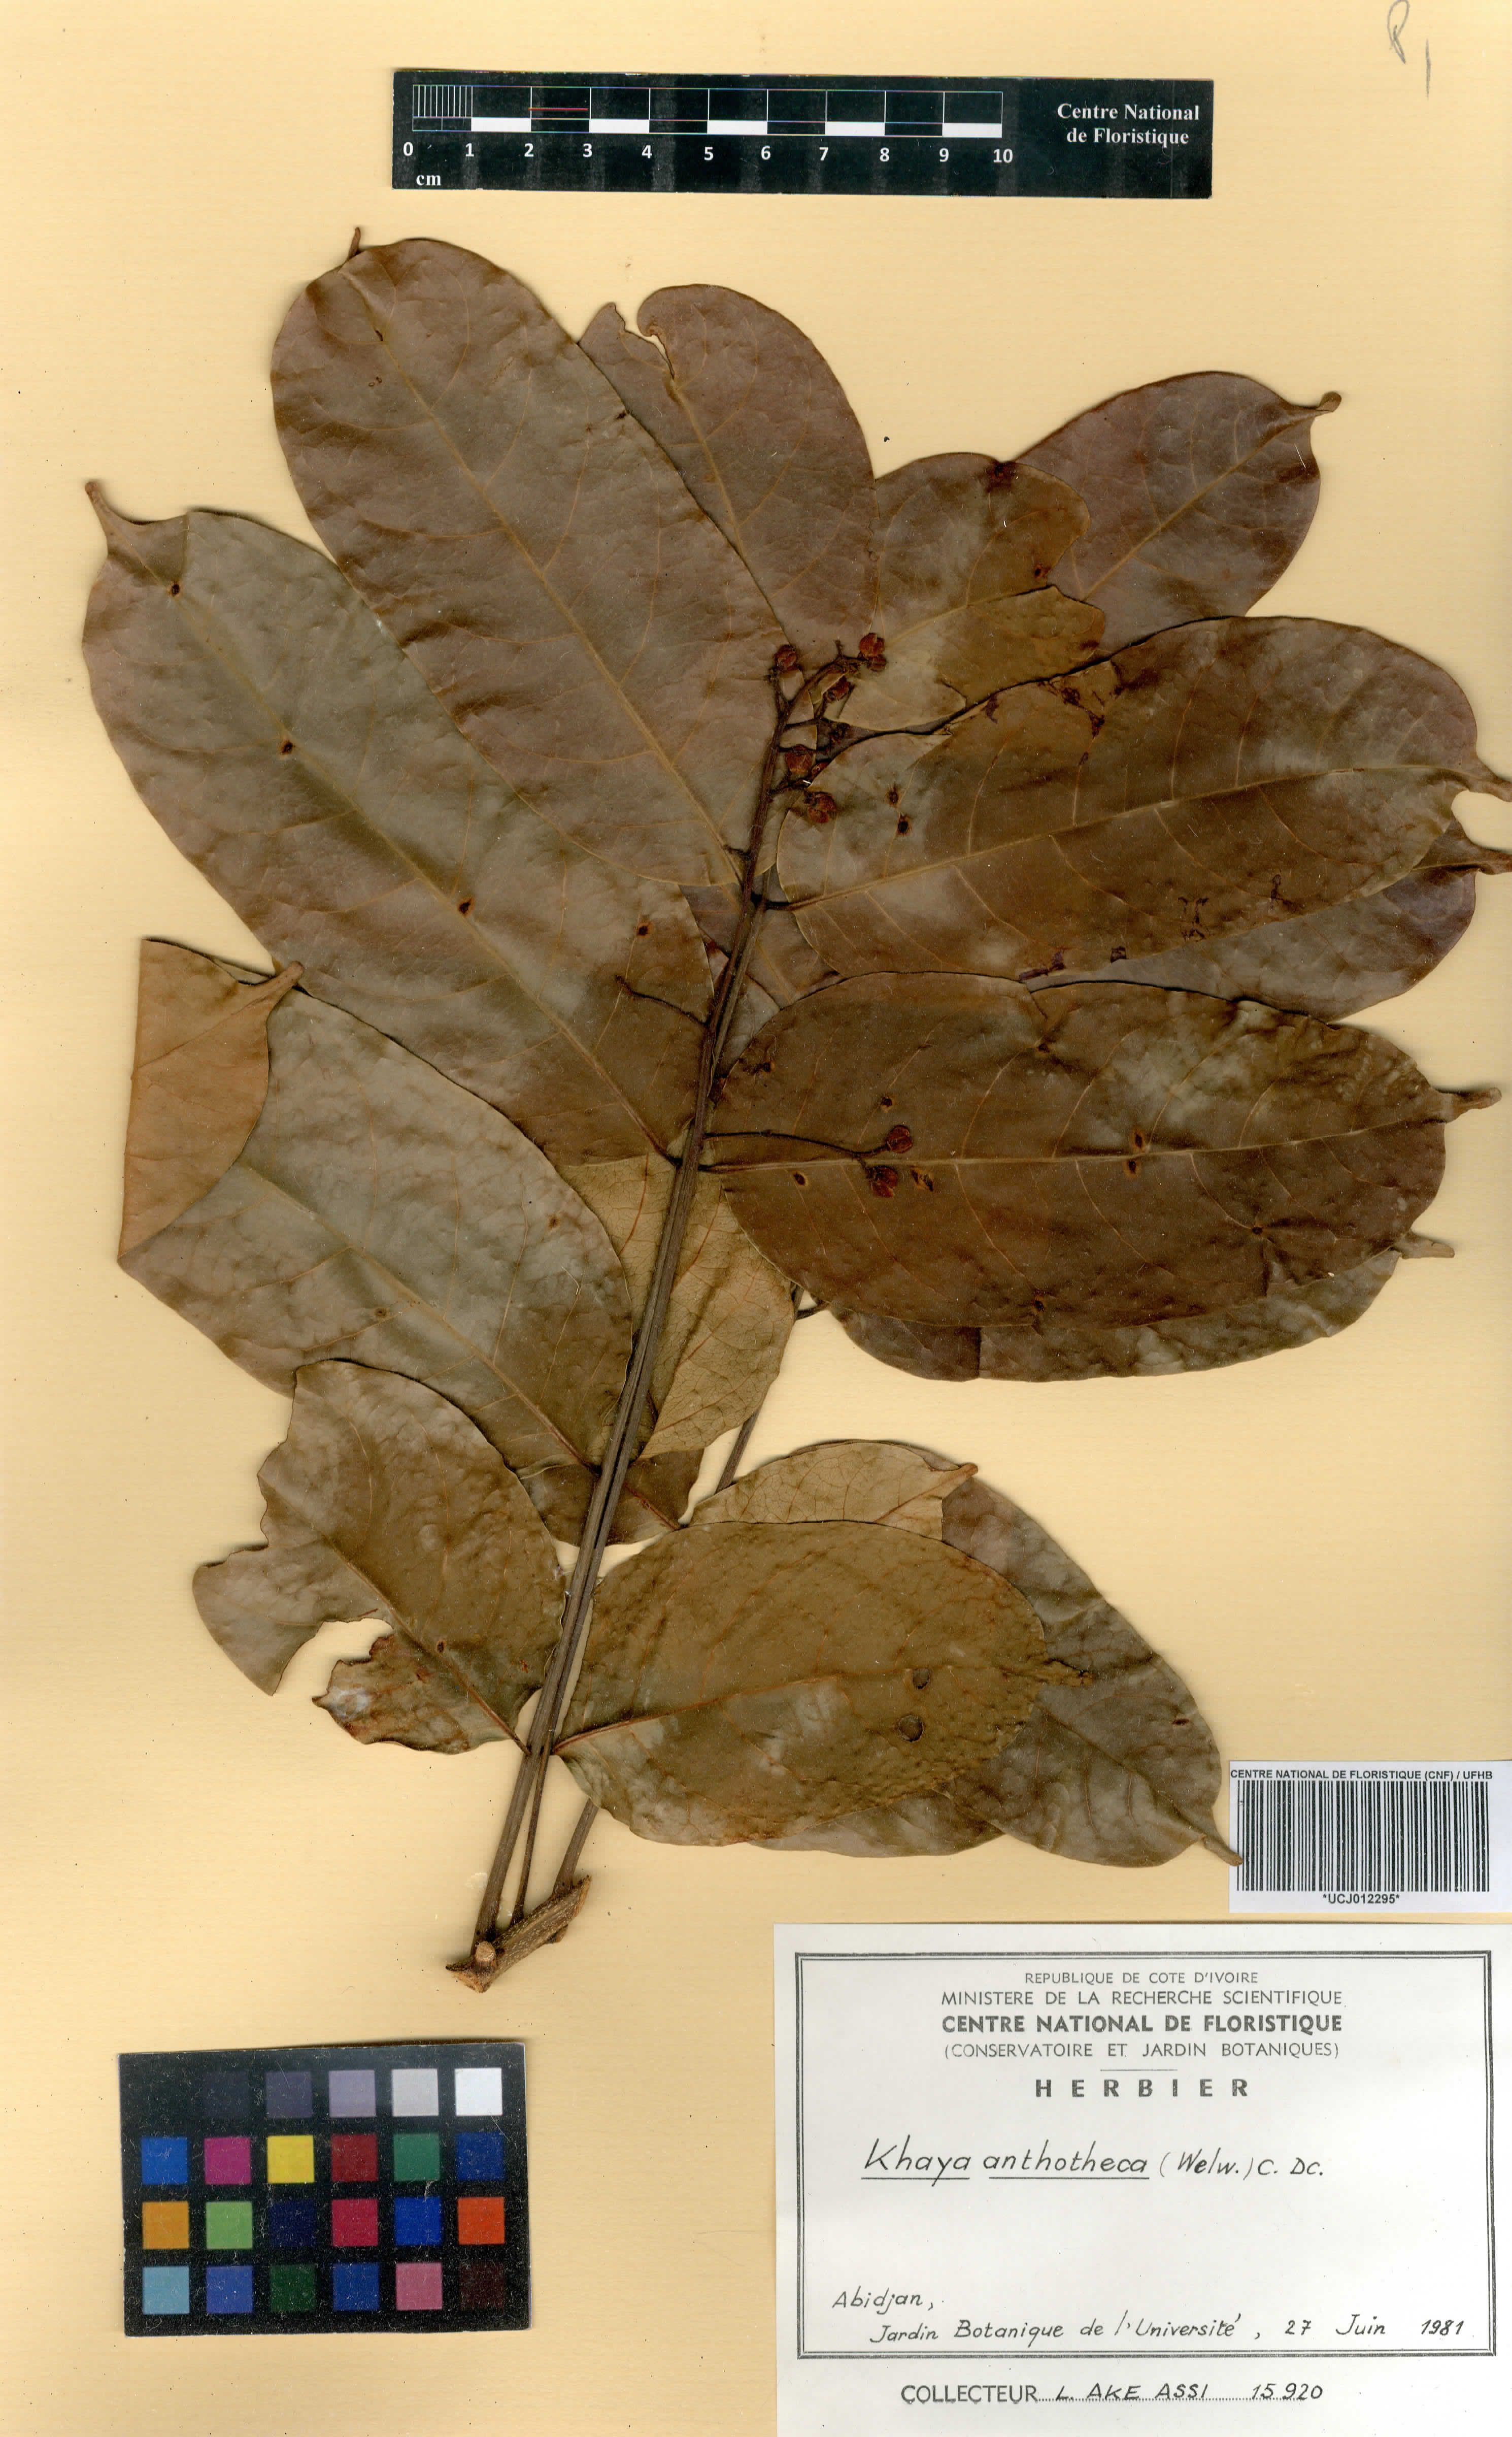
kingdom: Plantae
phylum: Tracheophyta
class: Magnoliopsida
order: Sapindales
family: Meliaceae
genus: Khaya
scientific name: Khaya anthotheca
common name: Nyasaland mahogany
